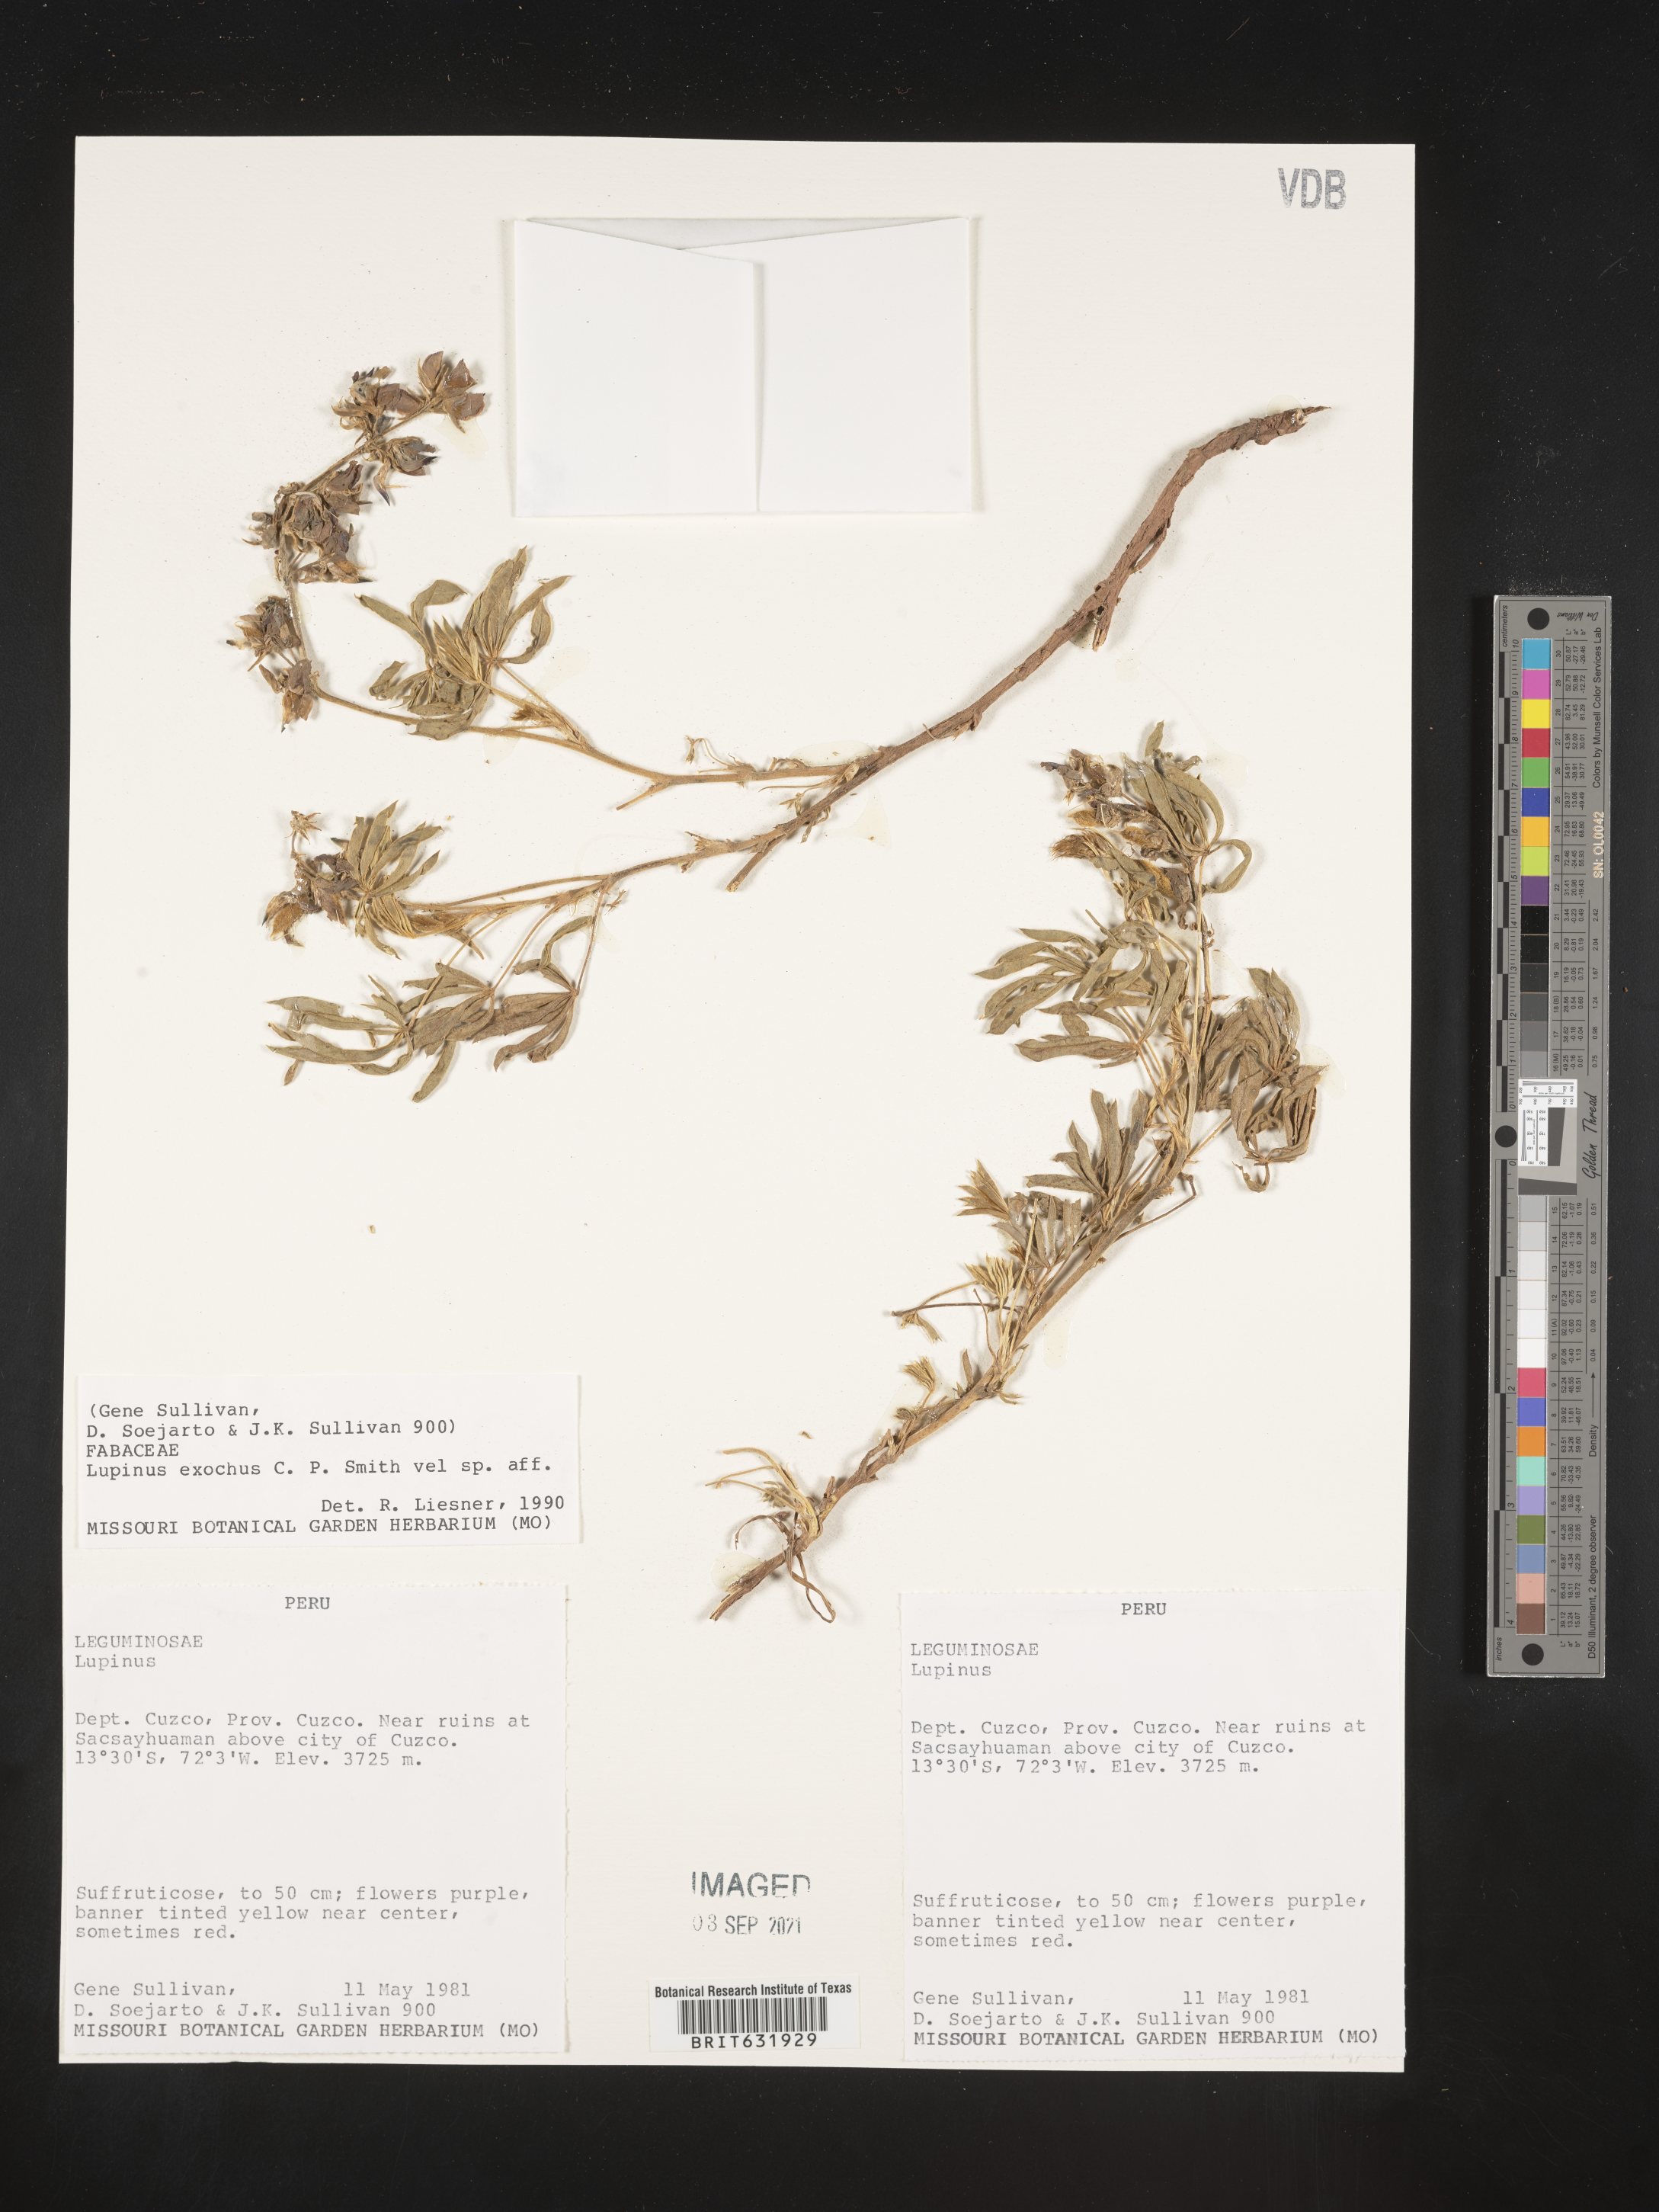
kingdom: Plantae
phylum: Tracheophyta
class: Magnoliopsida
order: Fabales
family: Fabaceae
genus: Lupinus
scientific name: Lupinus
